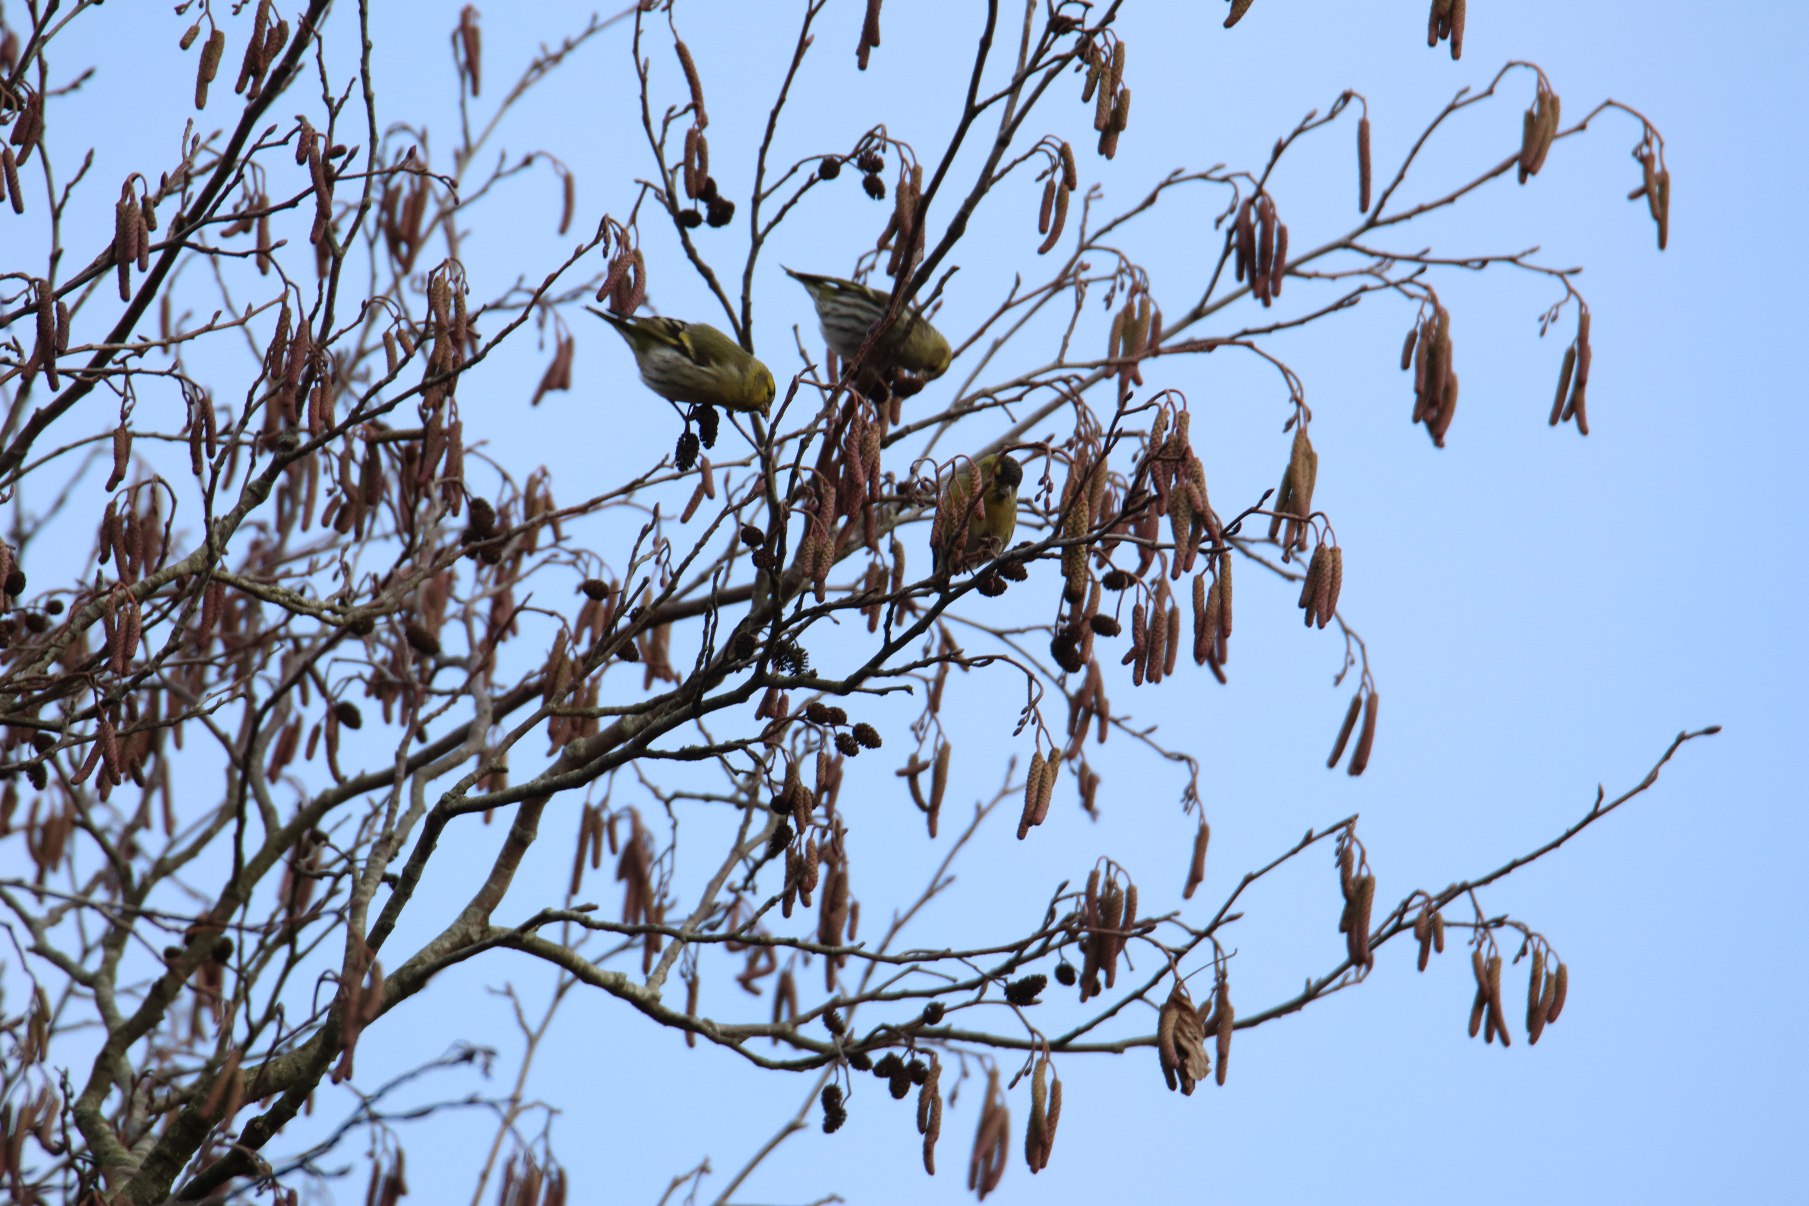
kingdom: Animalia
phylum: Chordata
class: Aves
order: Passeriformes
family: Fringillidae
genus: Spinus
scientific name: Spinus spinus
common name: Grønsisken
